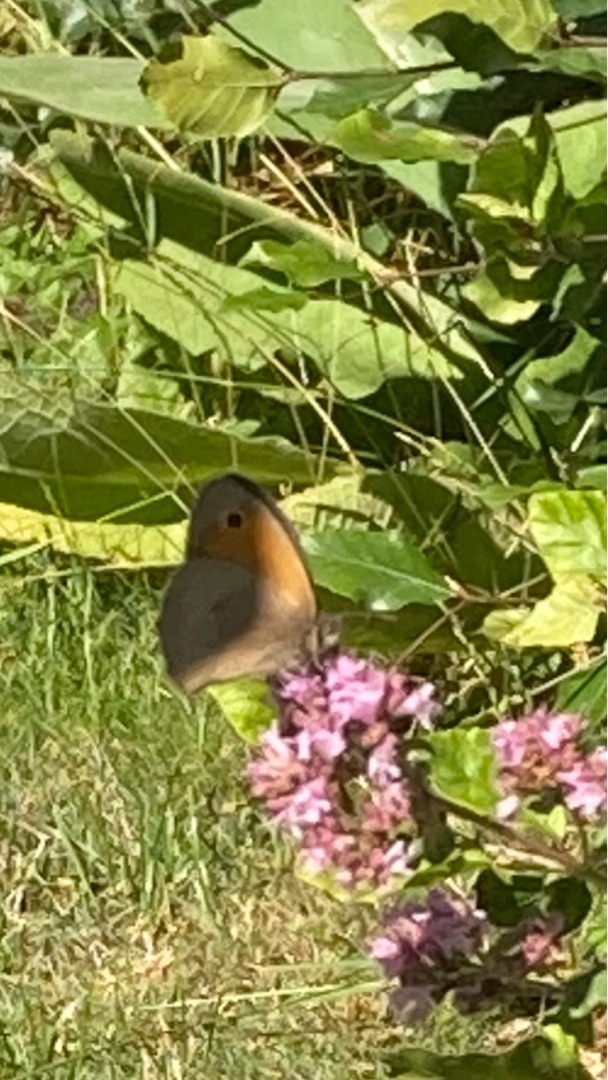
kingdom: Animalia
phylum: Arthropoda
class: Insecta
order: Lepidoptera
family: Nymphalidae
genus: Maniola
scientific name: Maniola jurtina
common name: Græsrandøje
